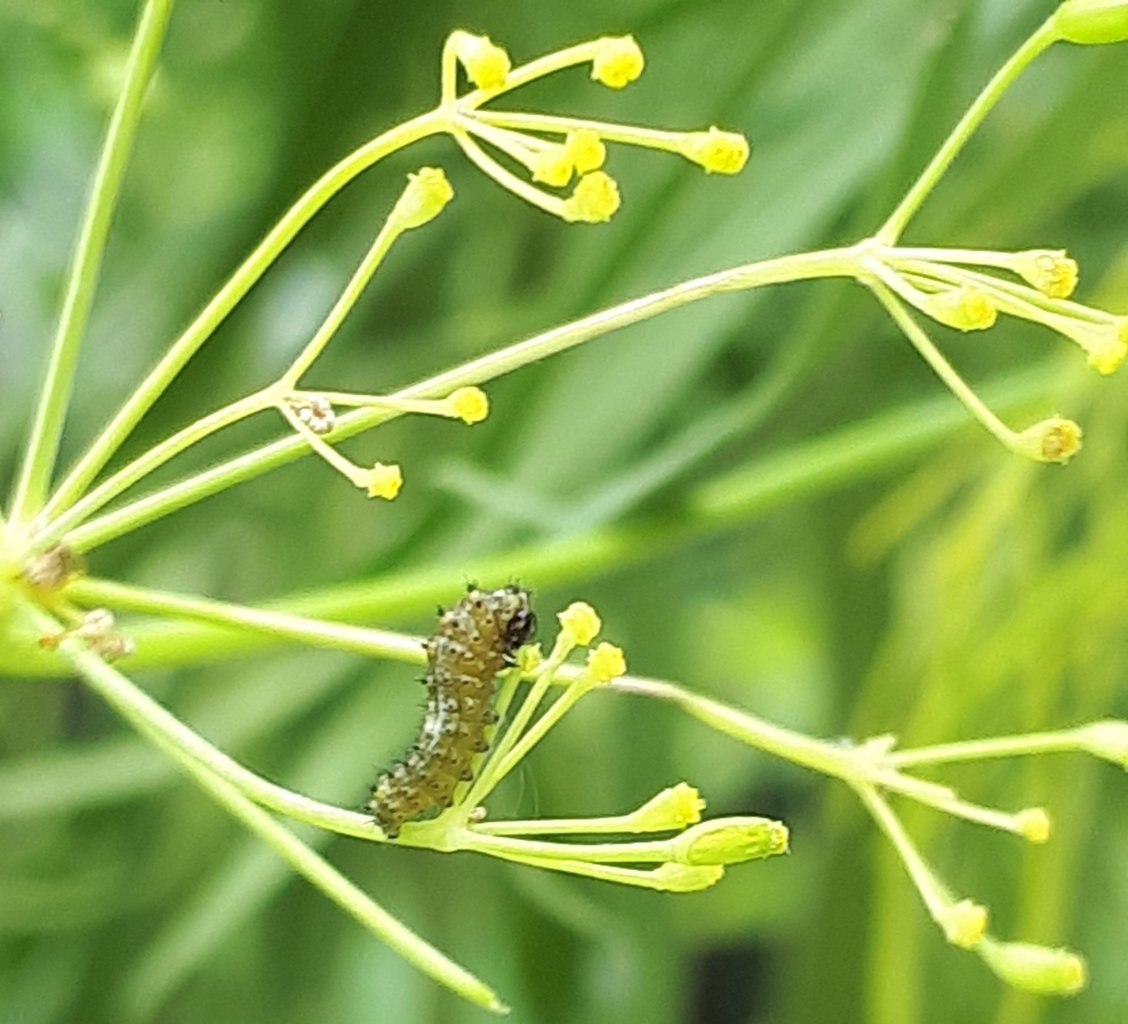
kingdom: Animalia
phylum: Arthropoda
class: Insecta
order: Lepidoptera
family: Papilionidae
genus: Papilio
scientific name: Papilio polyxenes
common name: Black Swallowtail
